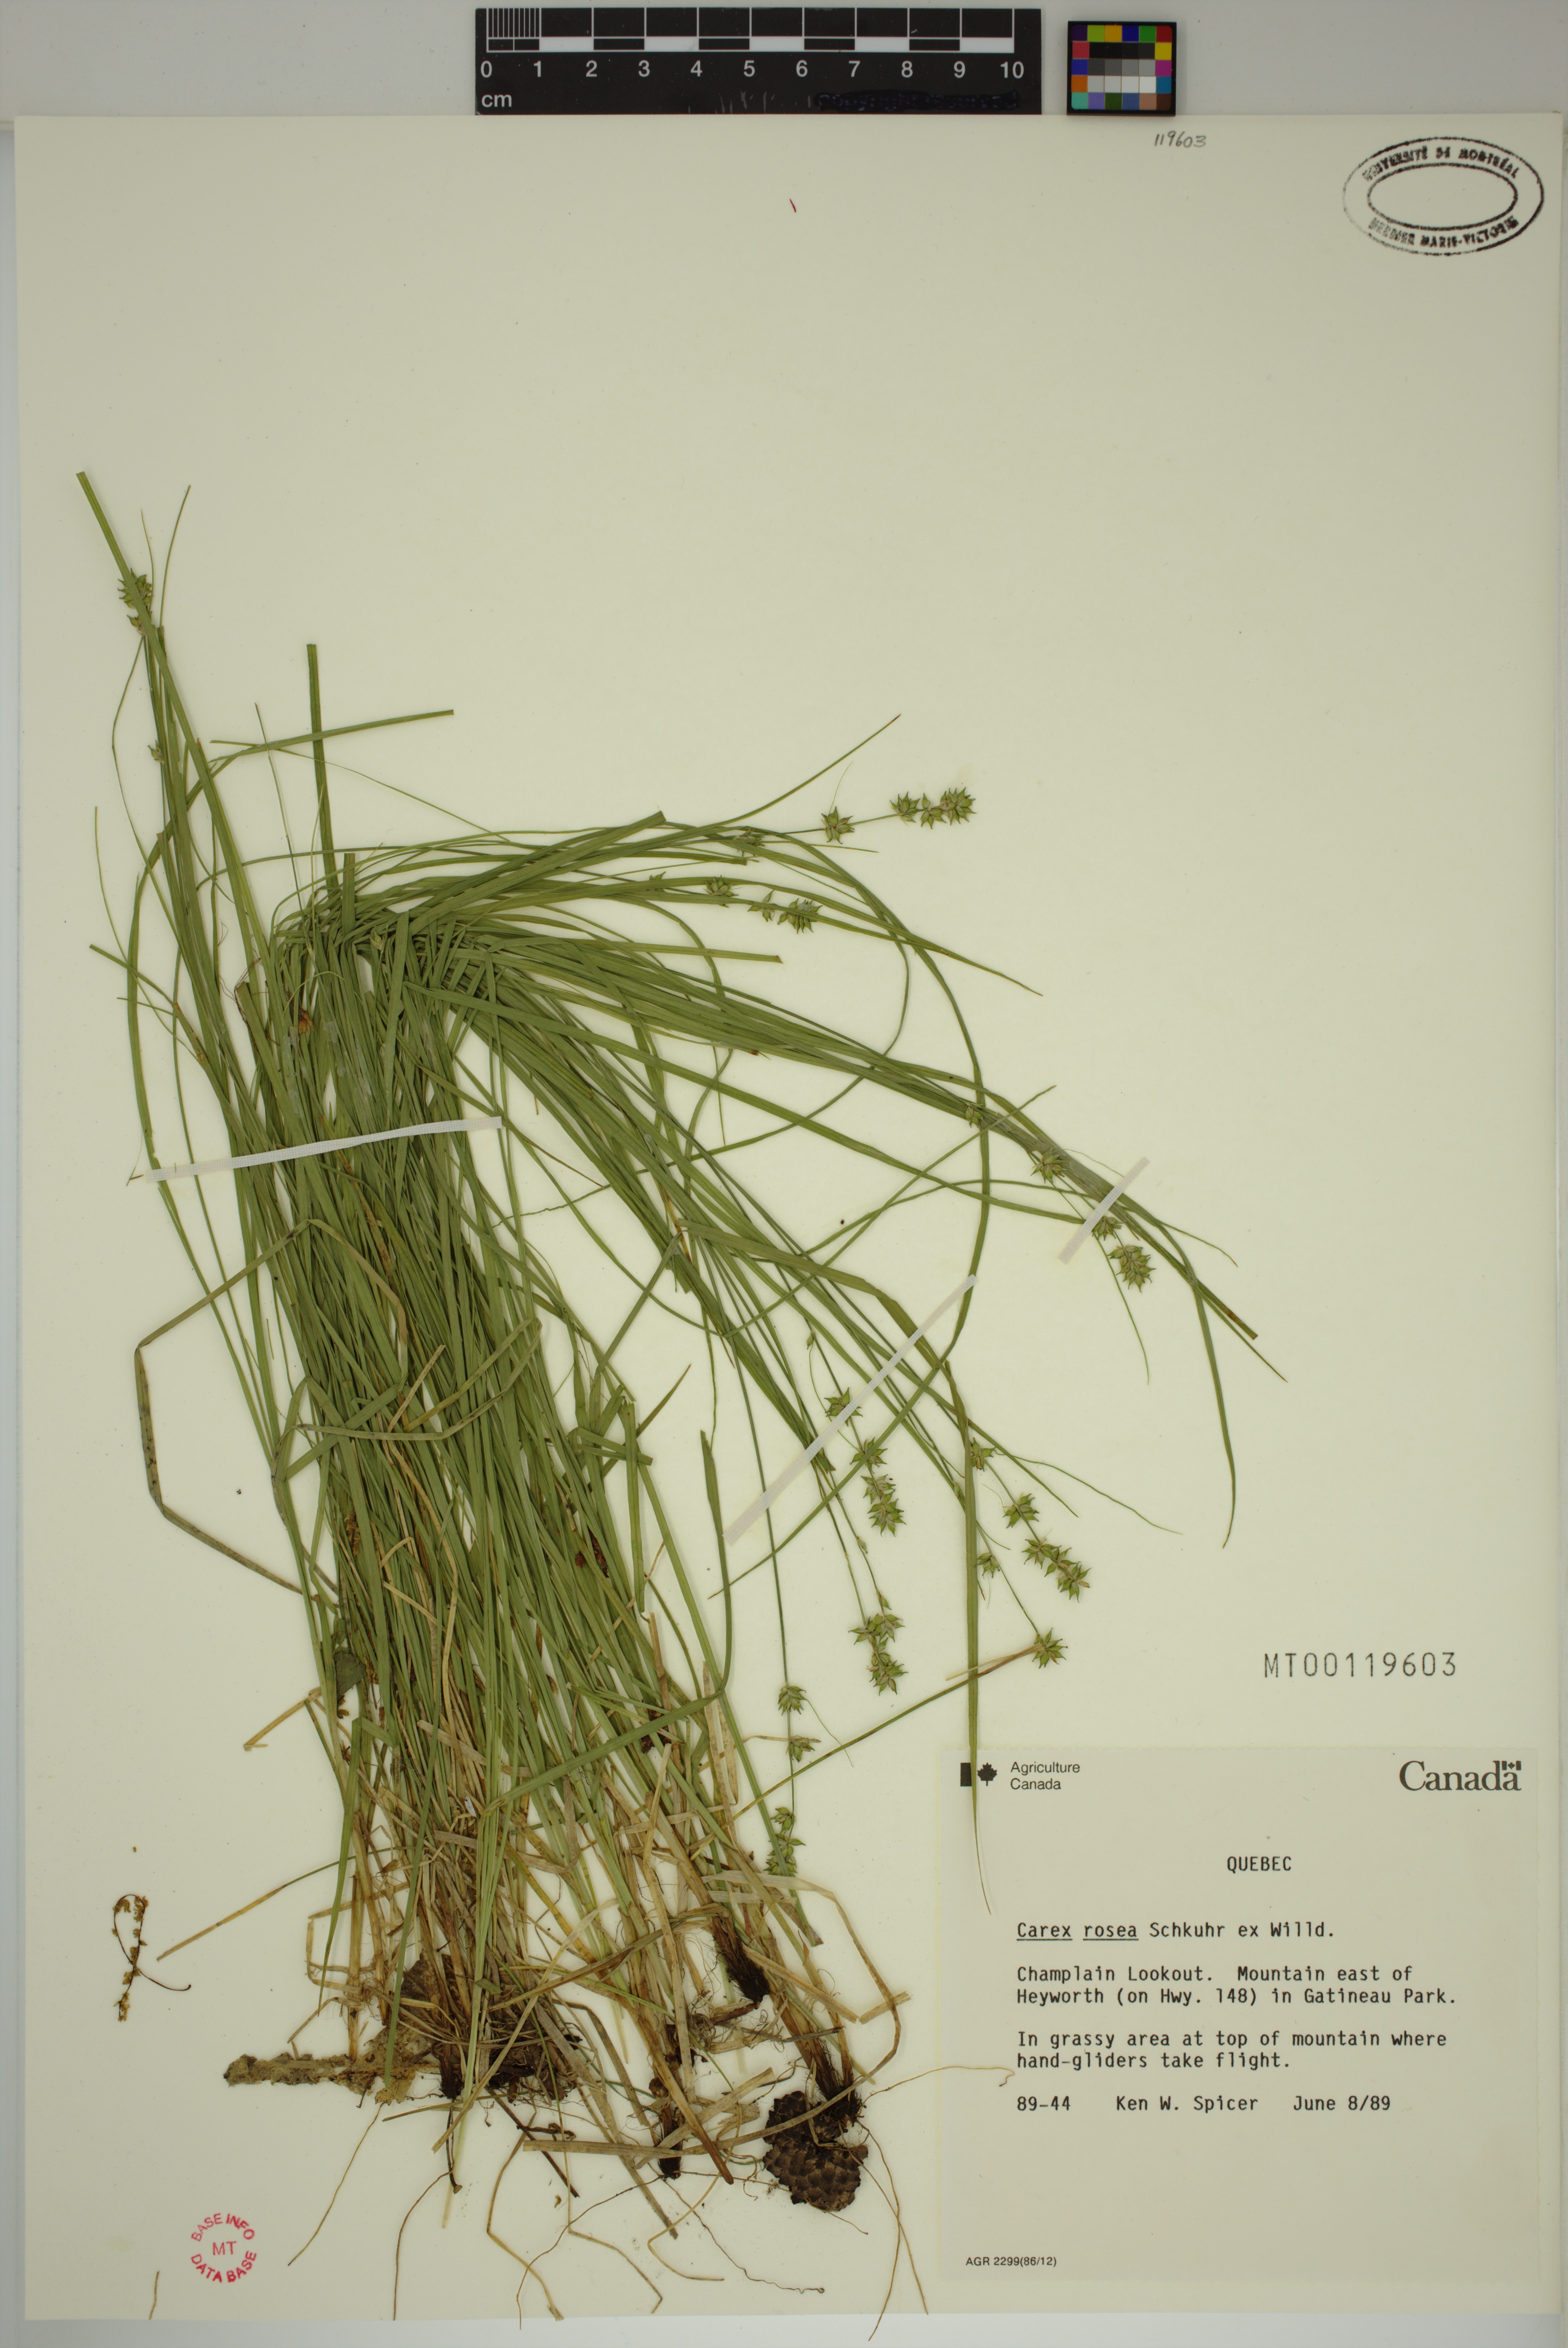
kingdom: Plantae
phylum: Tracheophyta
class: Liliopsida
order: Poales
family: Cyperaceae
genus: Carex
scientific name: Carex rosea
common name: Curly-styled wood sedge
